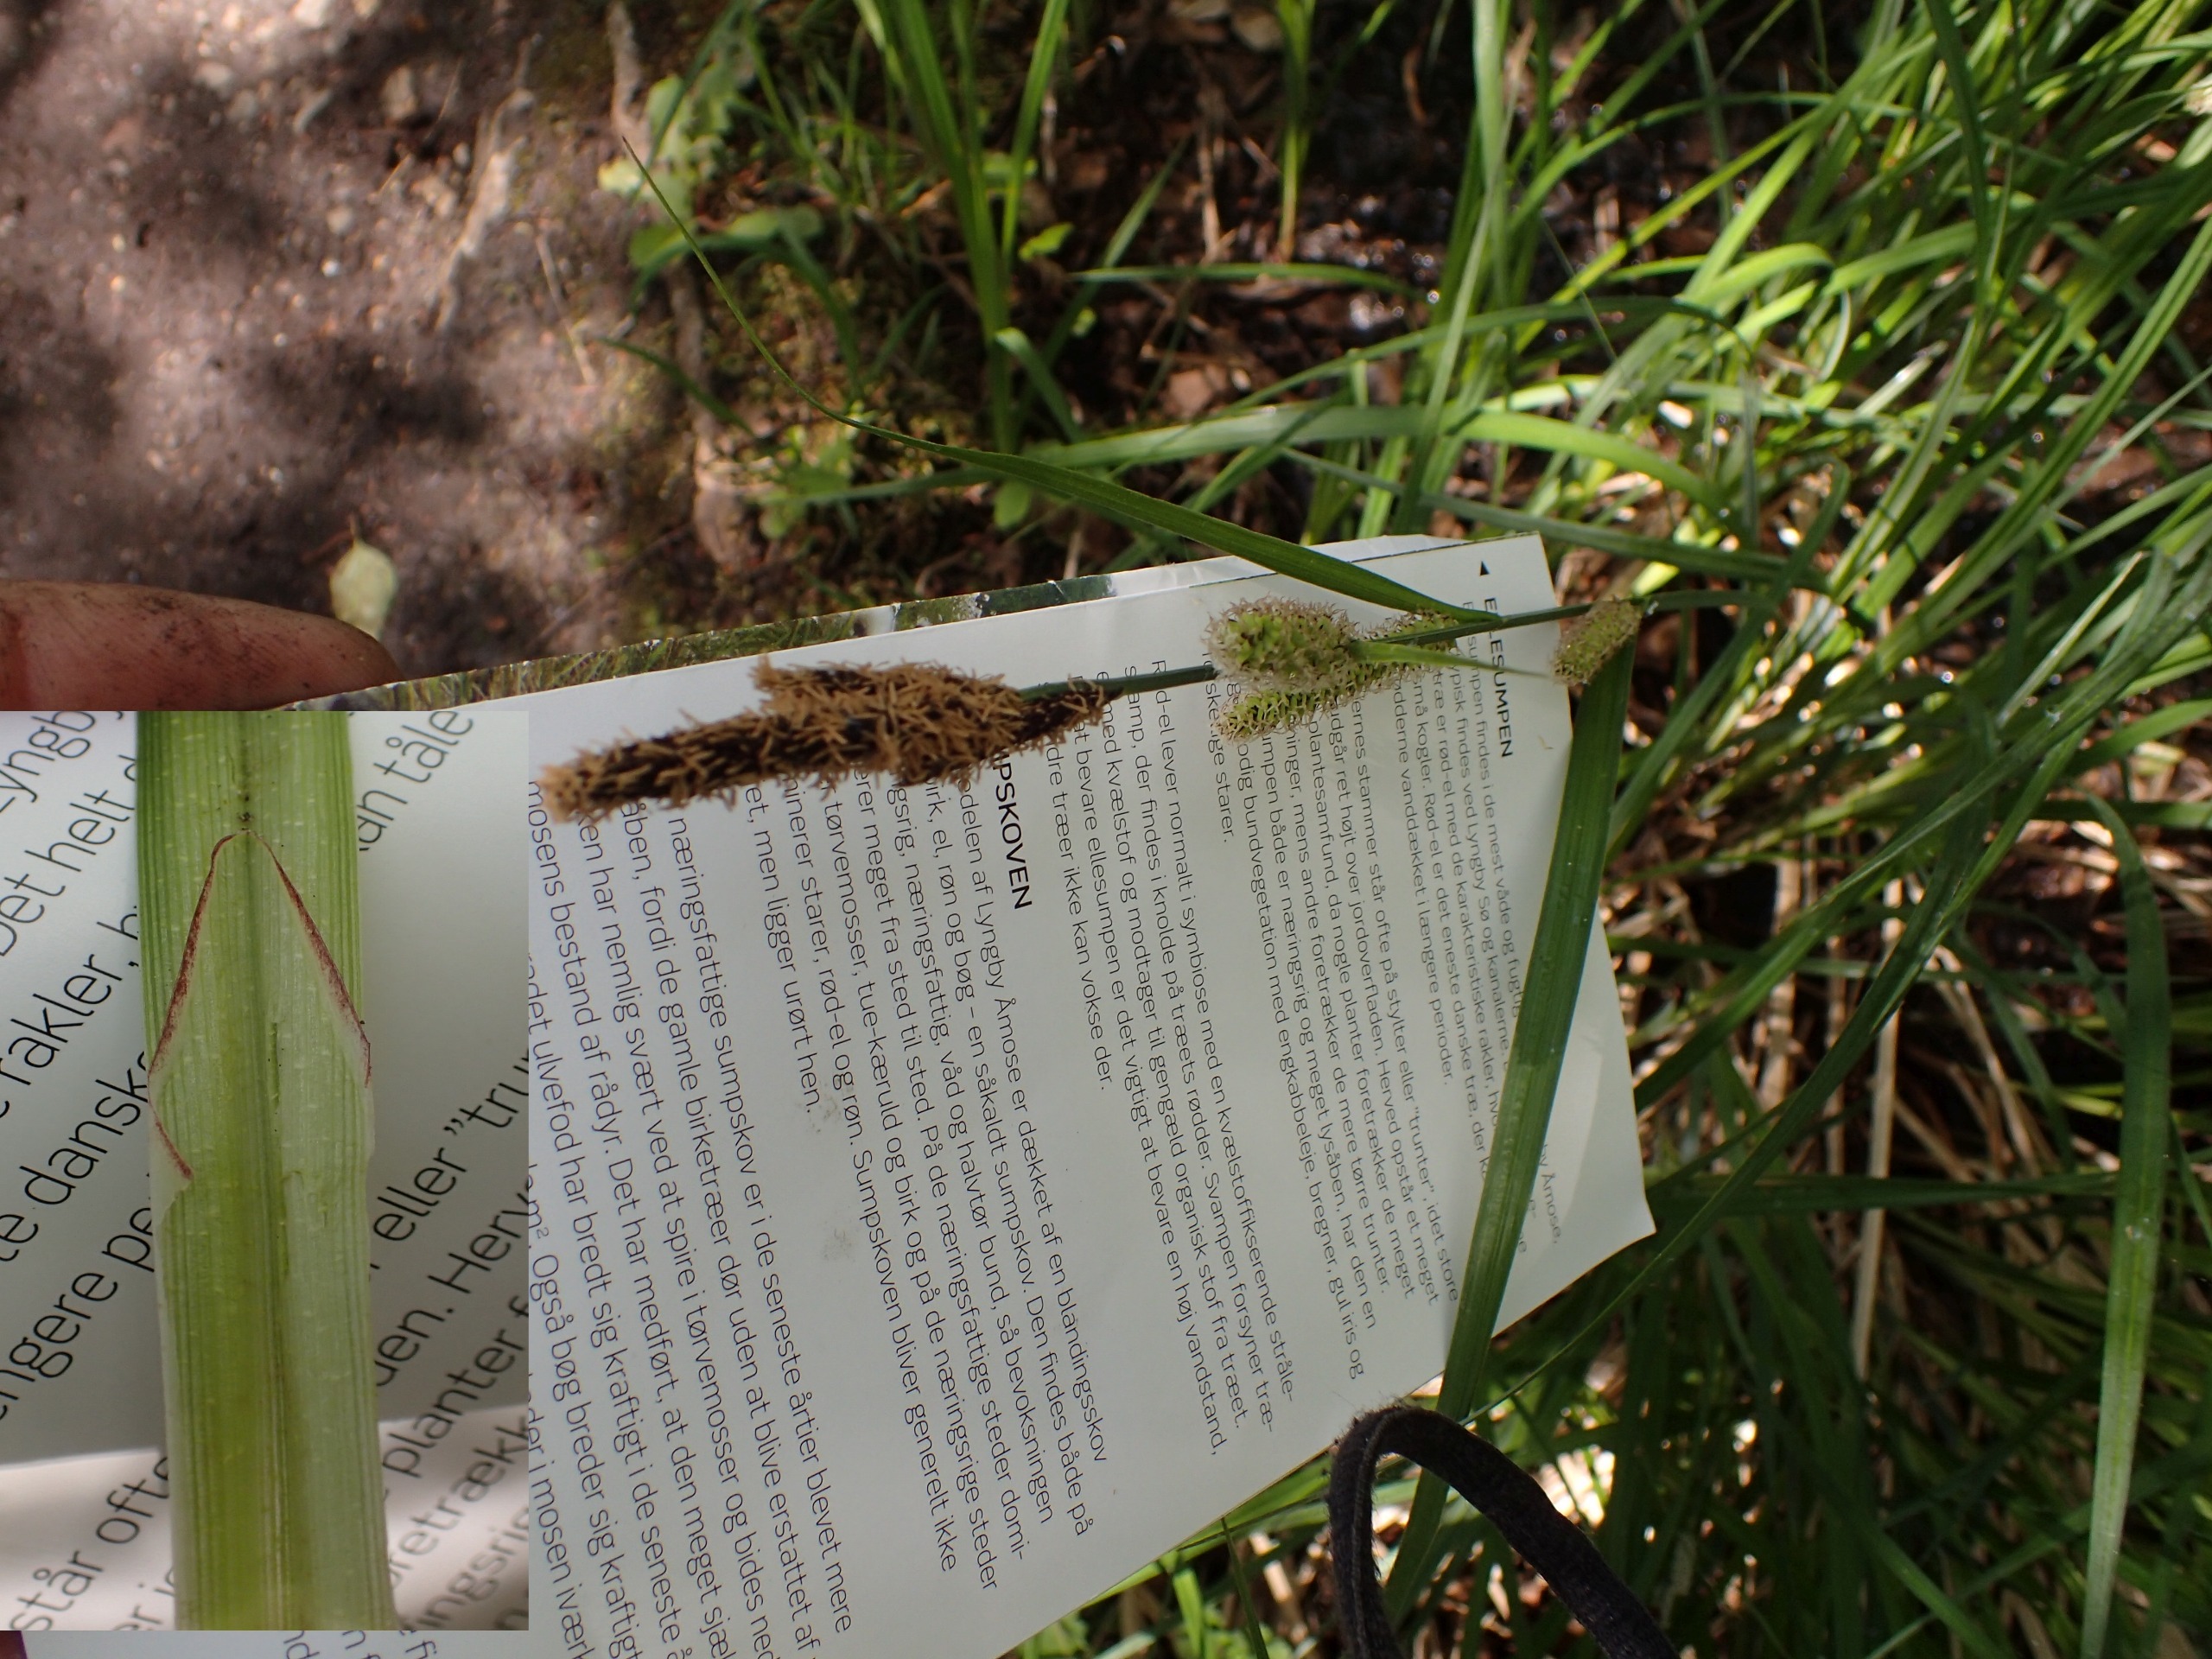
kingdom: Plantae
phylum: Tracheophyta
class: Liliopsida
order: Poales
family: Cyperaceae
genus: Carex
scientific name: Carex acutiformis
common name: Kær-star
